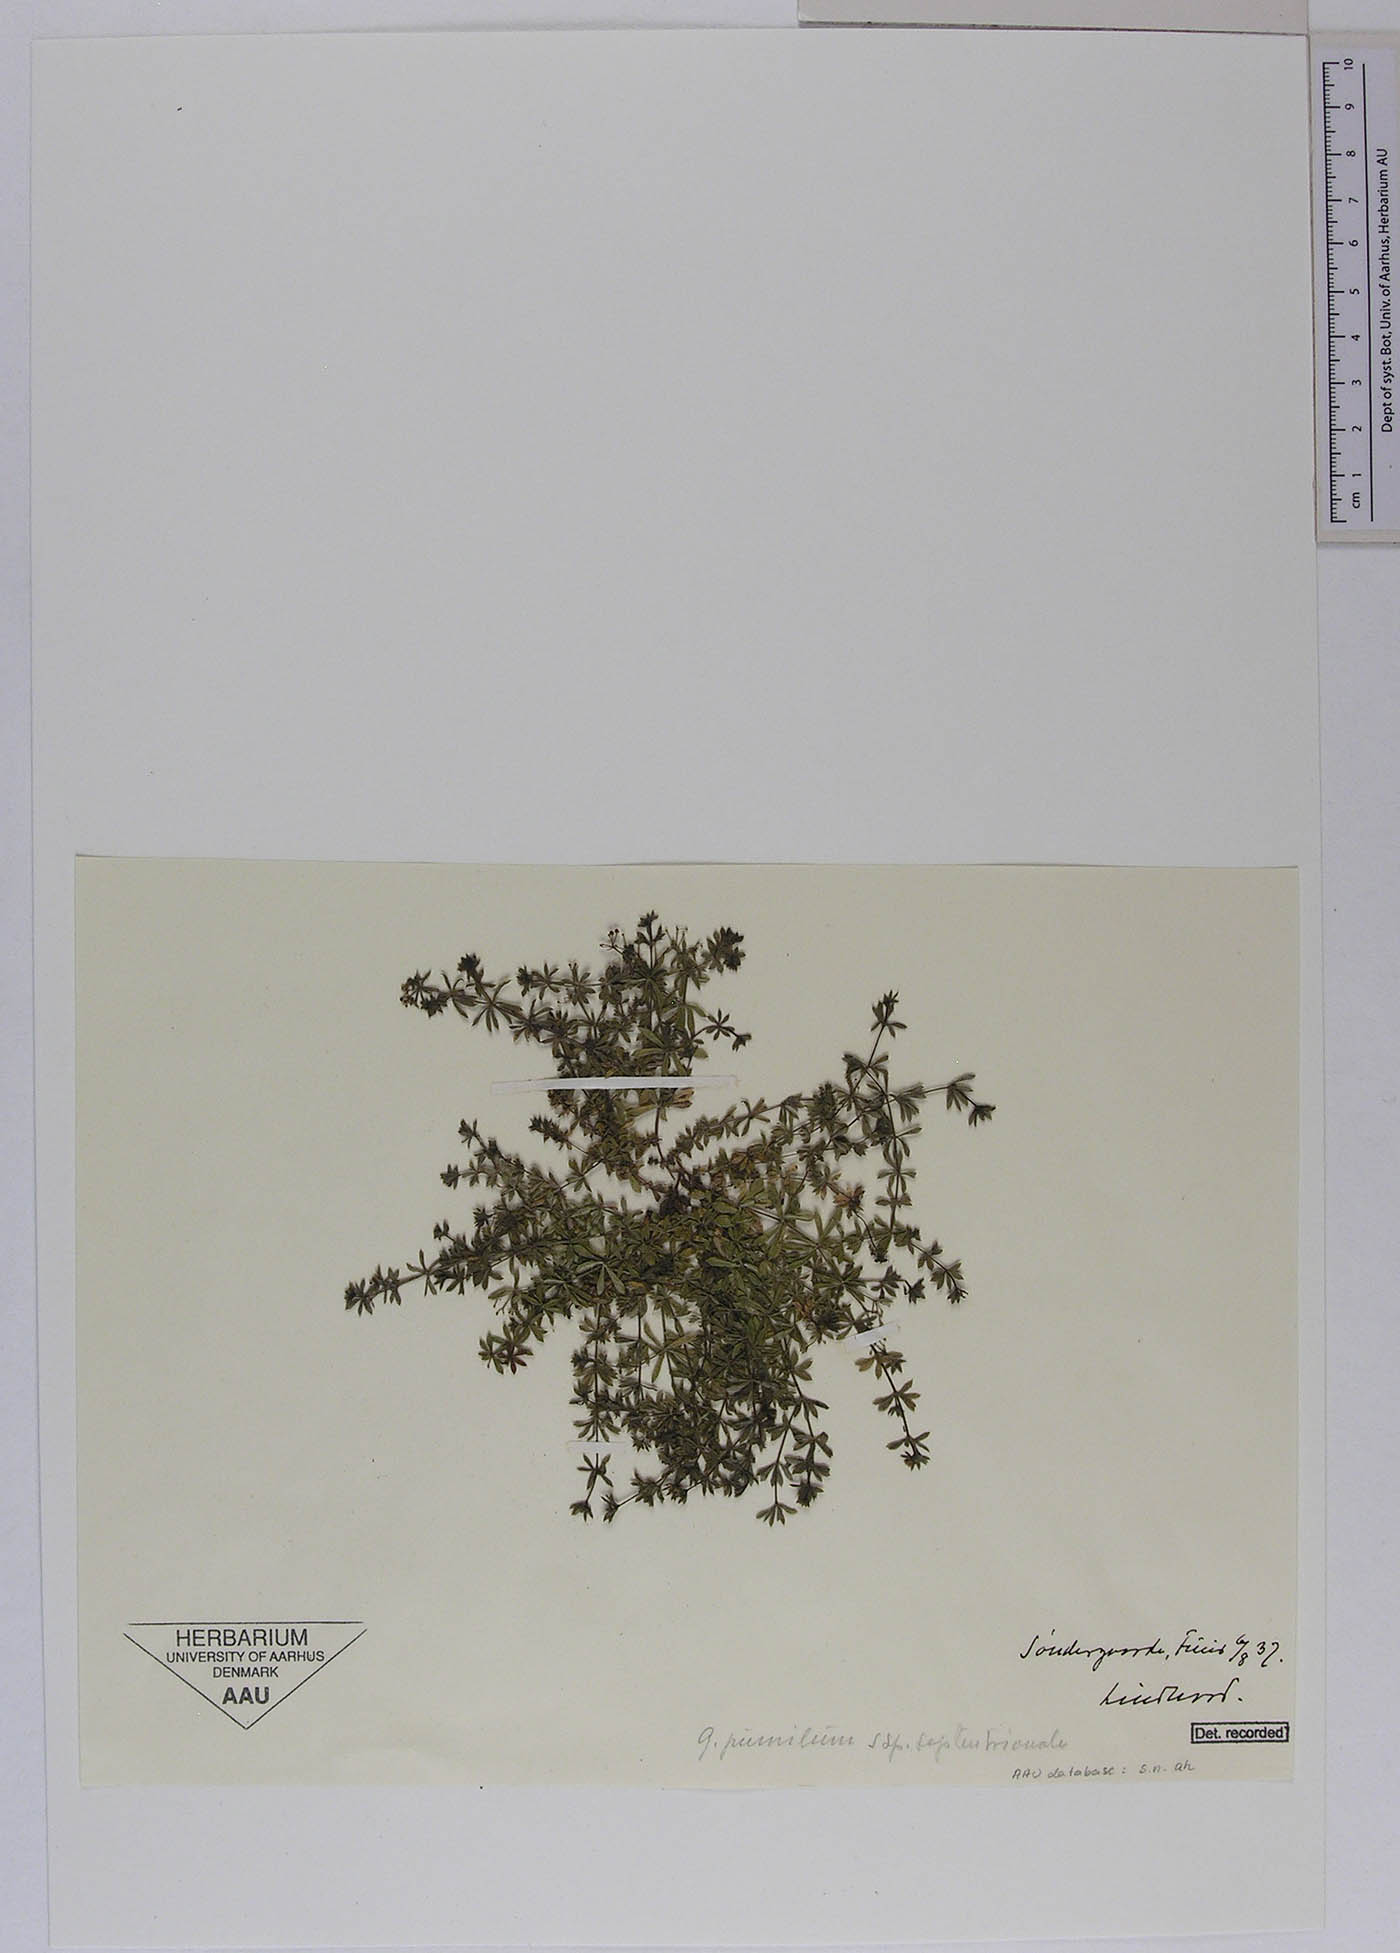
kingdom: Plantae
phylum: Tracheophyta
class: Magnoliopsida
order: Gentianales
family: Rubiaceae
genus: Galium
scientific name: Galium pusillum
